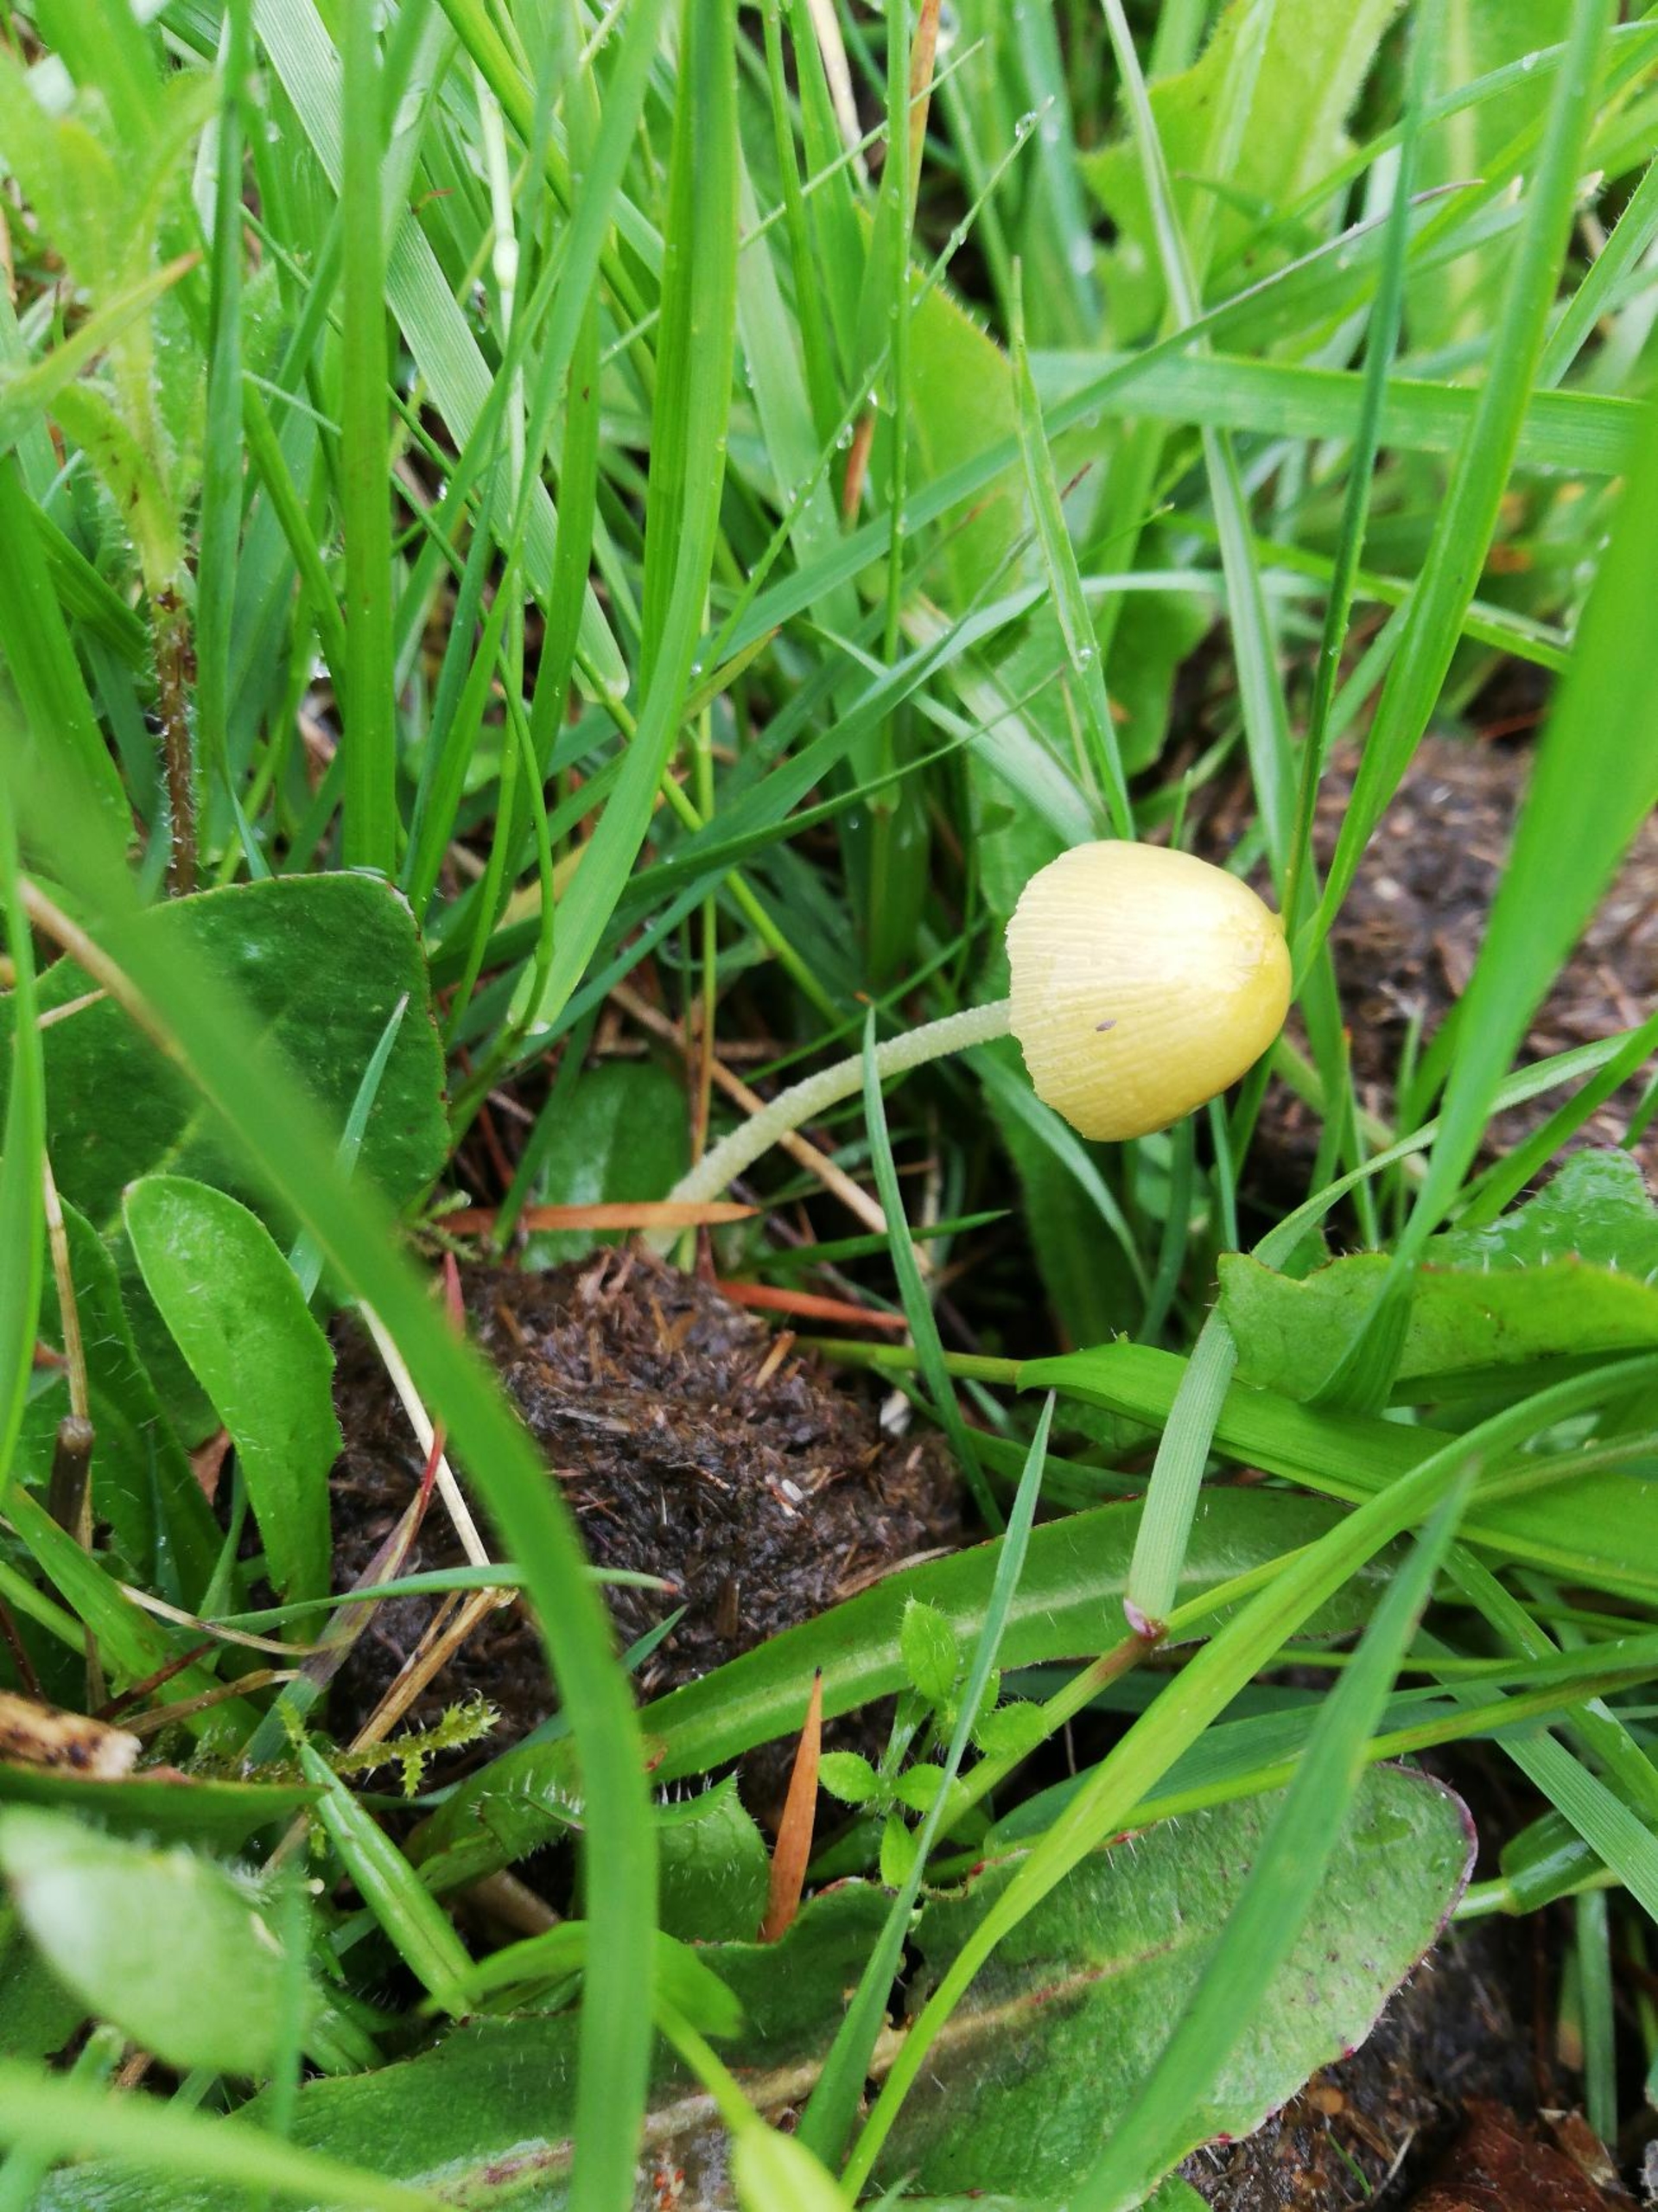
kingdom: Fungi
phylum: Basidiomycota
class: Agaricomycetes
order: Agaricales
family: Bolbitiaceae
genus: Bolbitius
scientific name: Bolbitius titubans
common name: Almindelig gulhat
